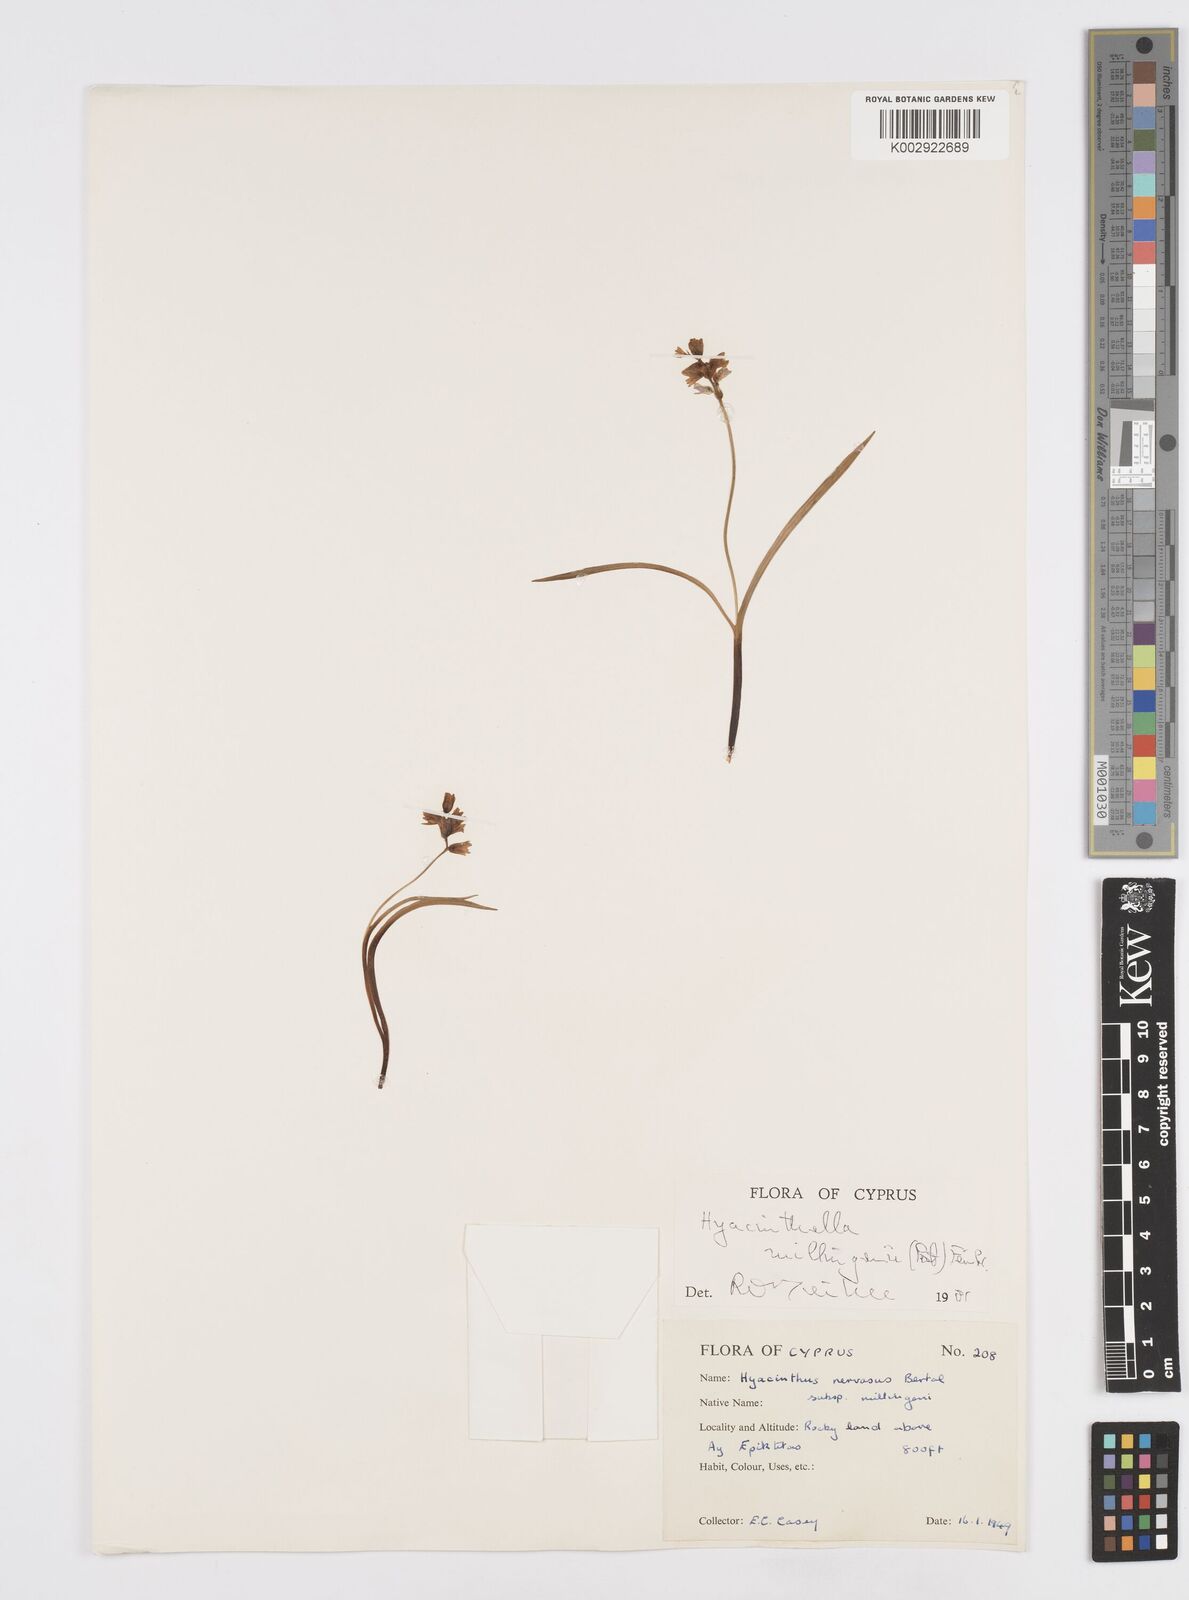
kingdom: Plantae
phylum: Tracheophyta
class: Liliopsida
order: Asparagales
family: Asparagaceae
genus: Hyacinthella
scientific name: Hyacinthella millingenii
